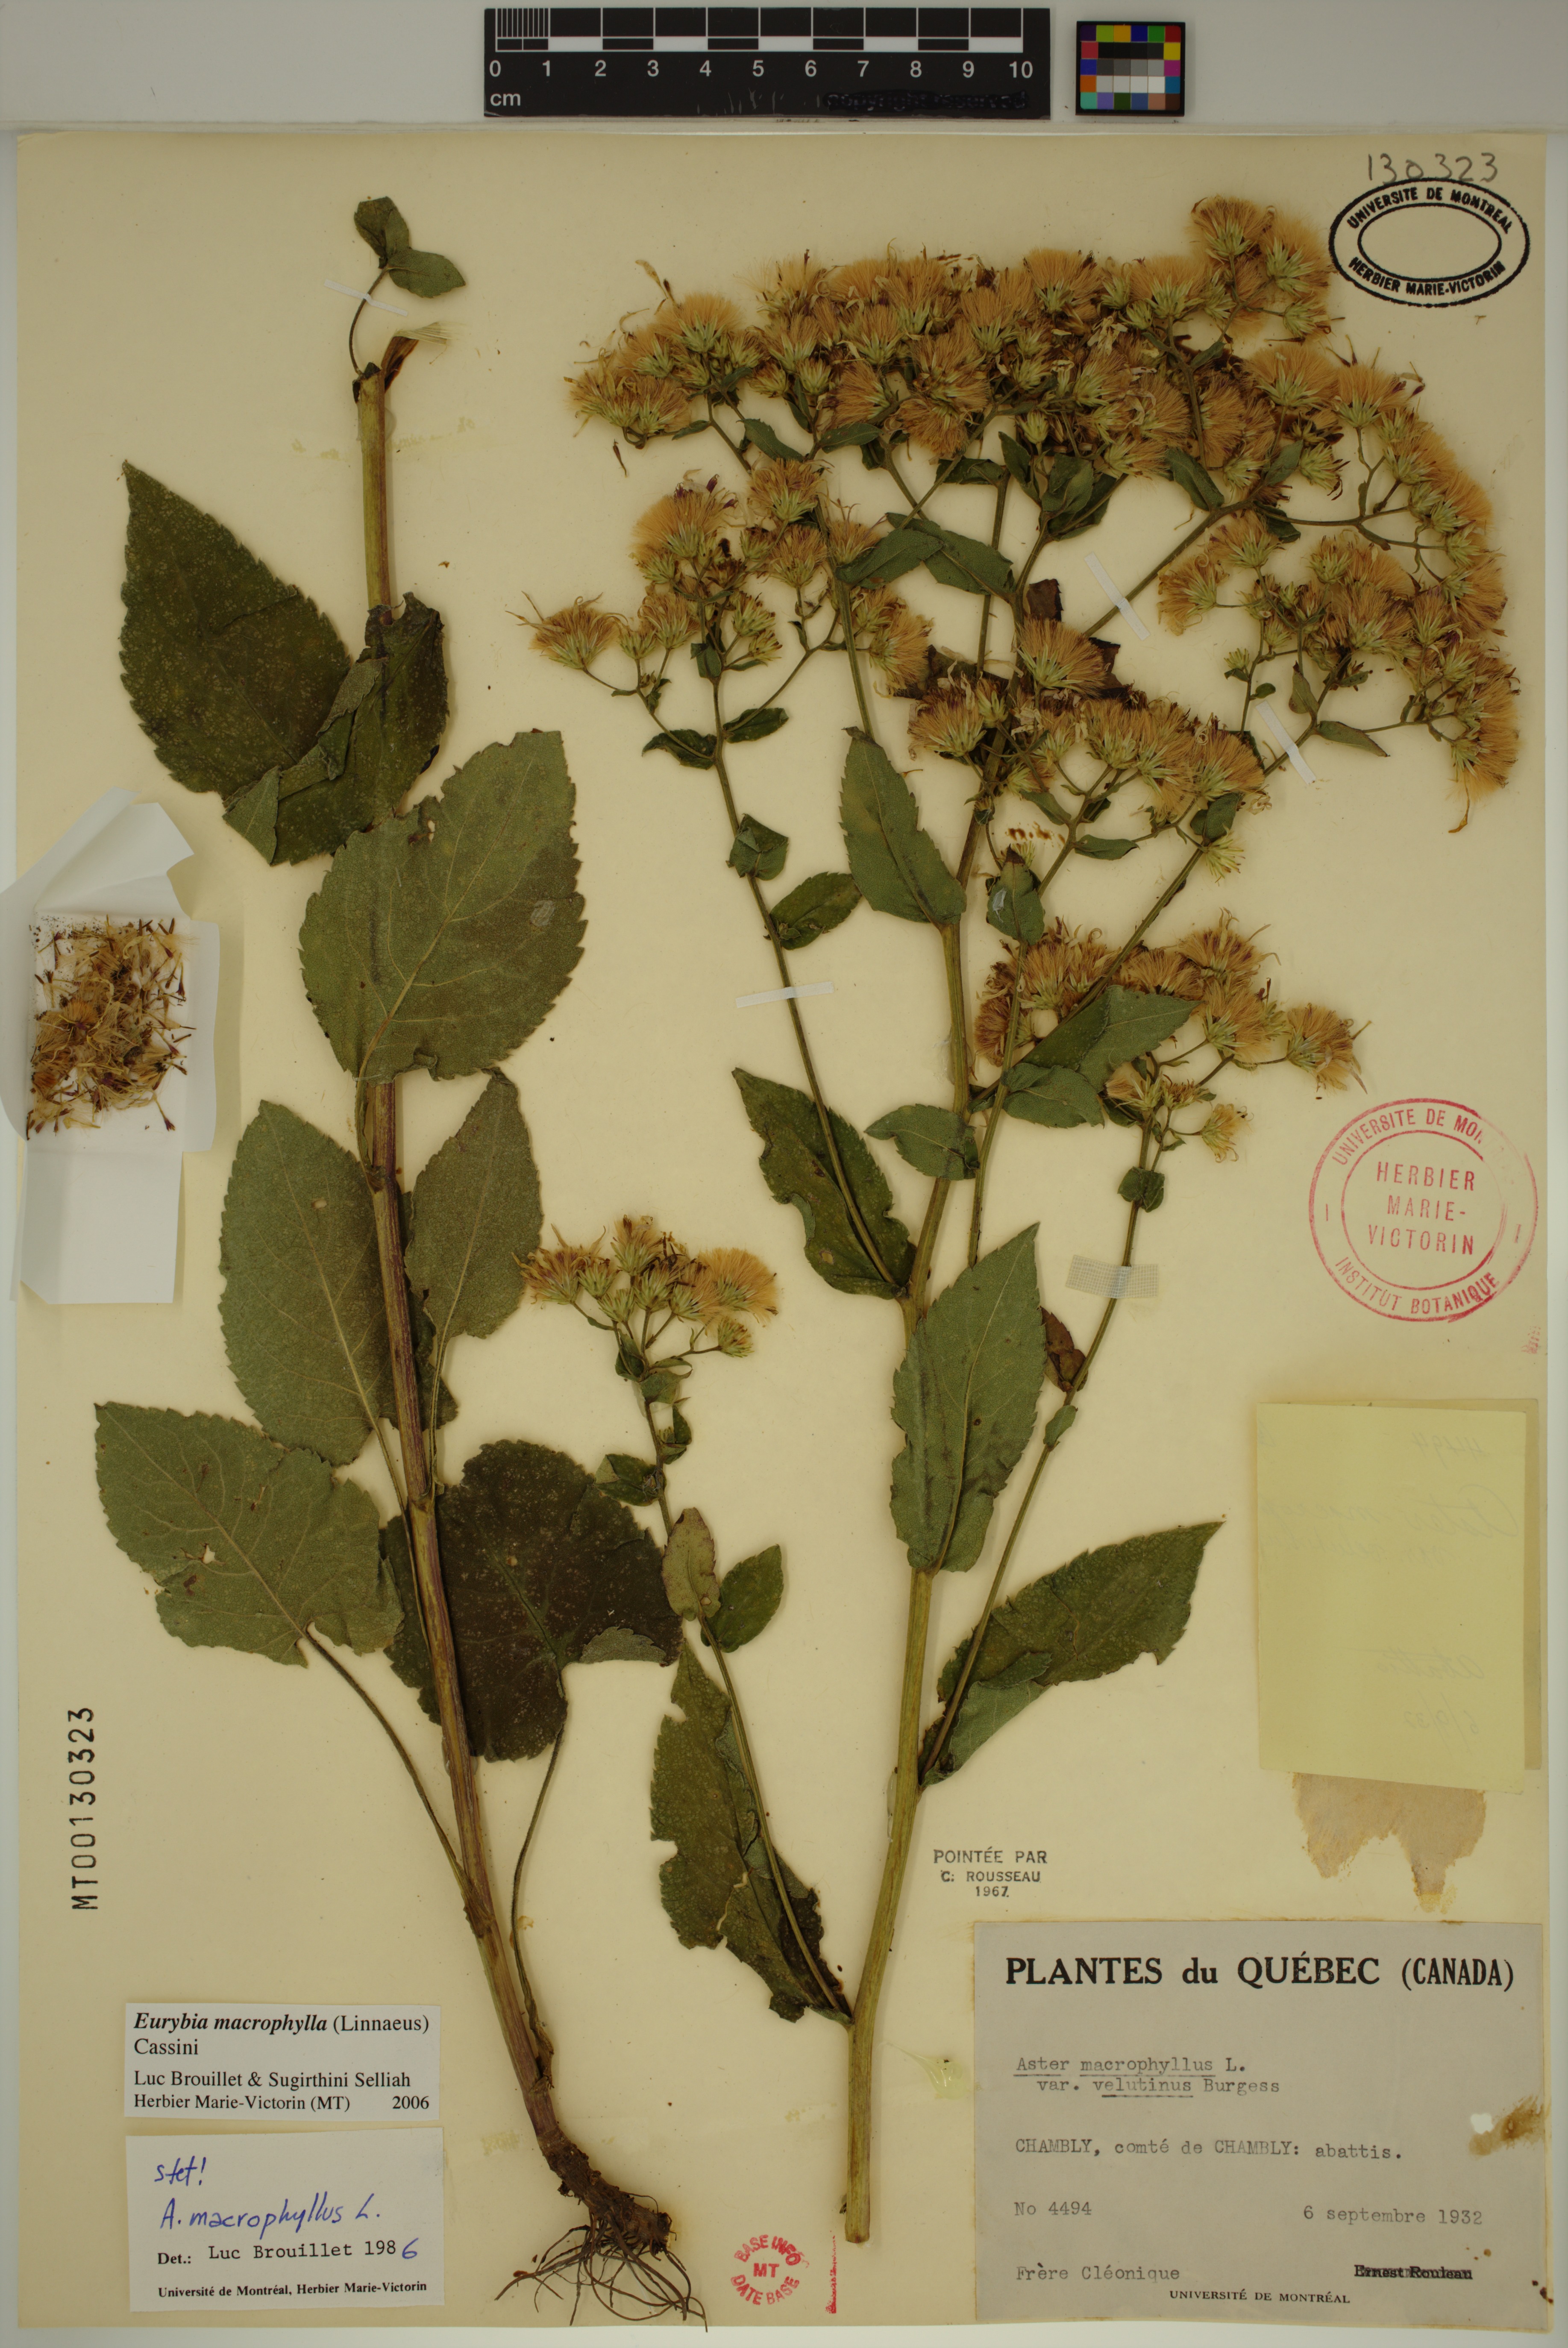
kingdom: Plantae
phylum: Tracheophyta
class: Magnoliopsida
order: Asterales
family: Asteraceae
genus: Eurybia
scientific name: Eurybia macrophylla
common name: Big-leaved aster
